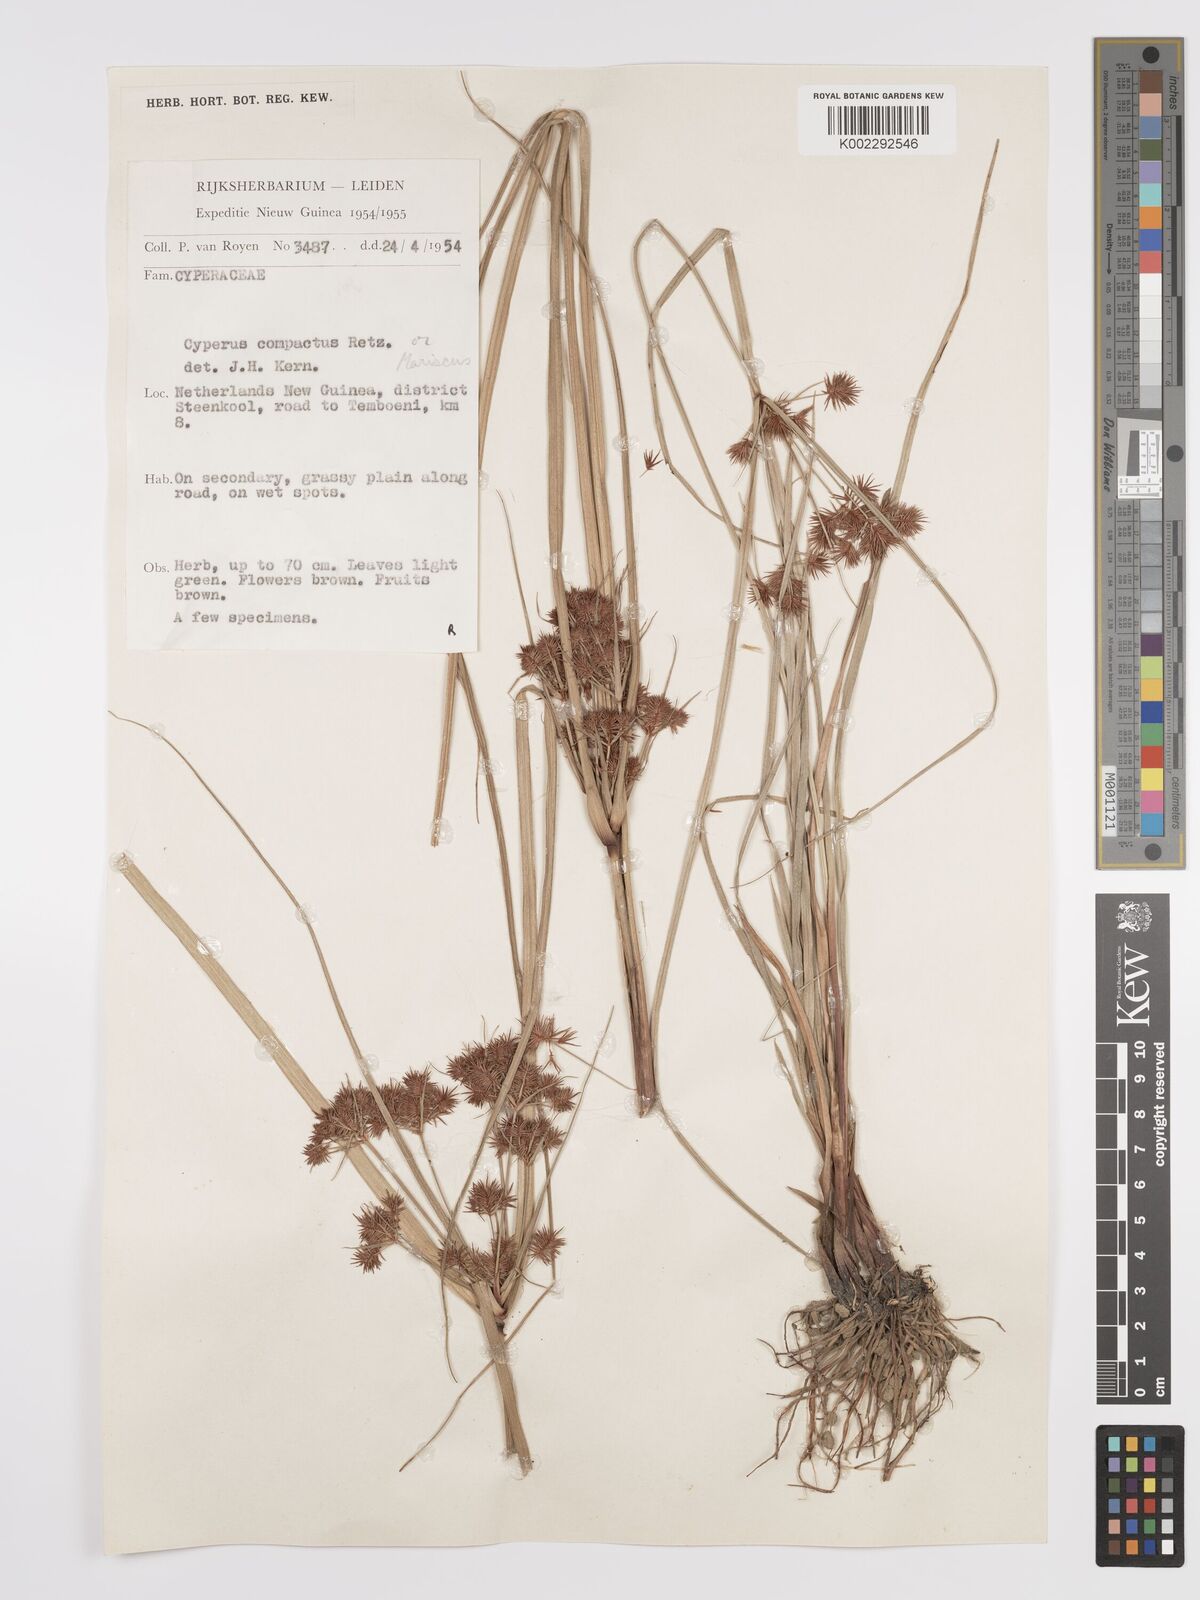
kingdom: Plantae
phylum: Tracheophyta
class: Liliopsida
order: Poales
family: Cyperaceae
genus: Cyperus
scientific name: Cyperus compactus
